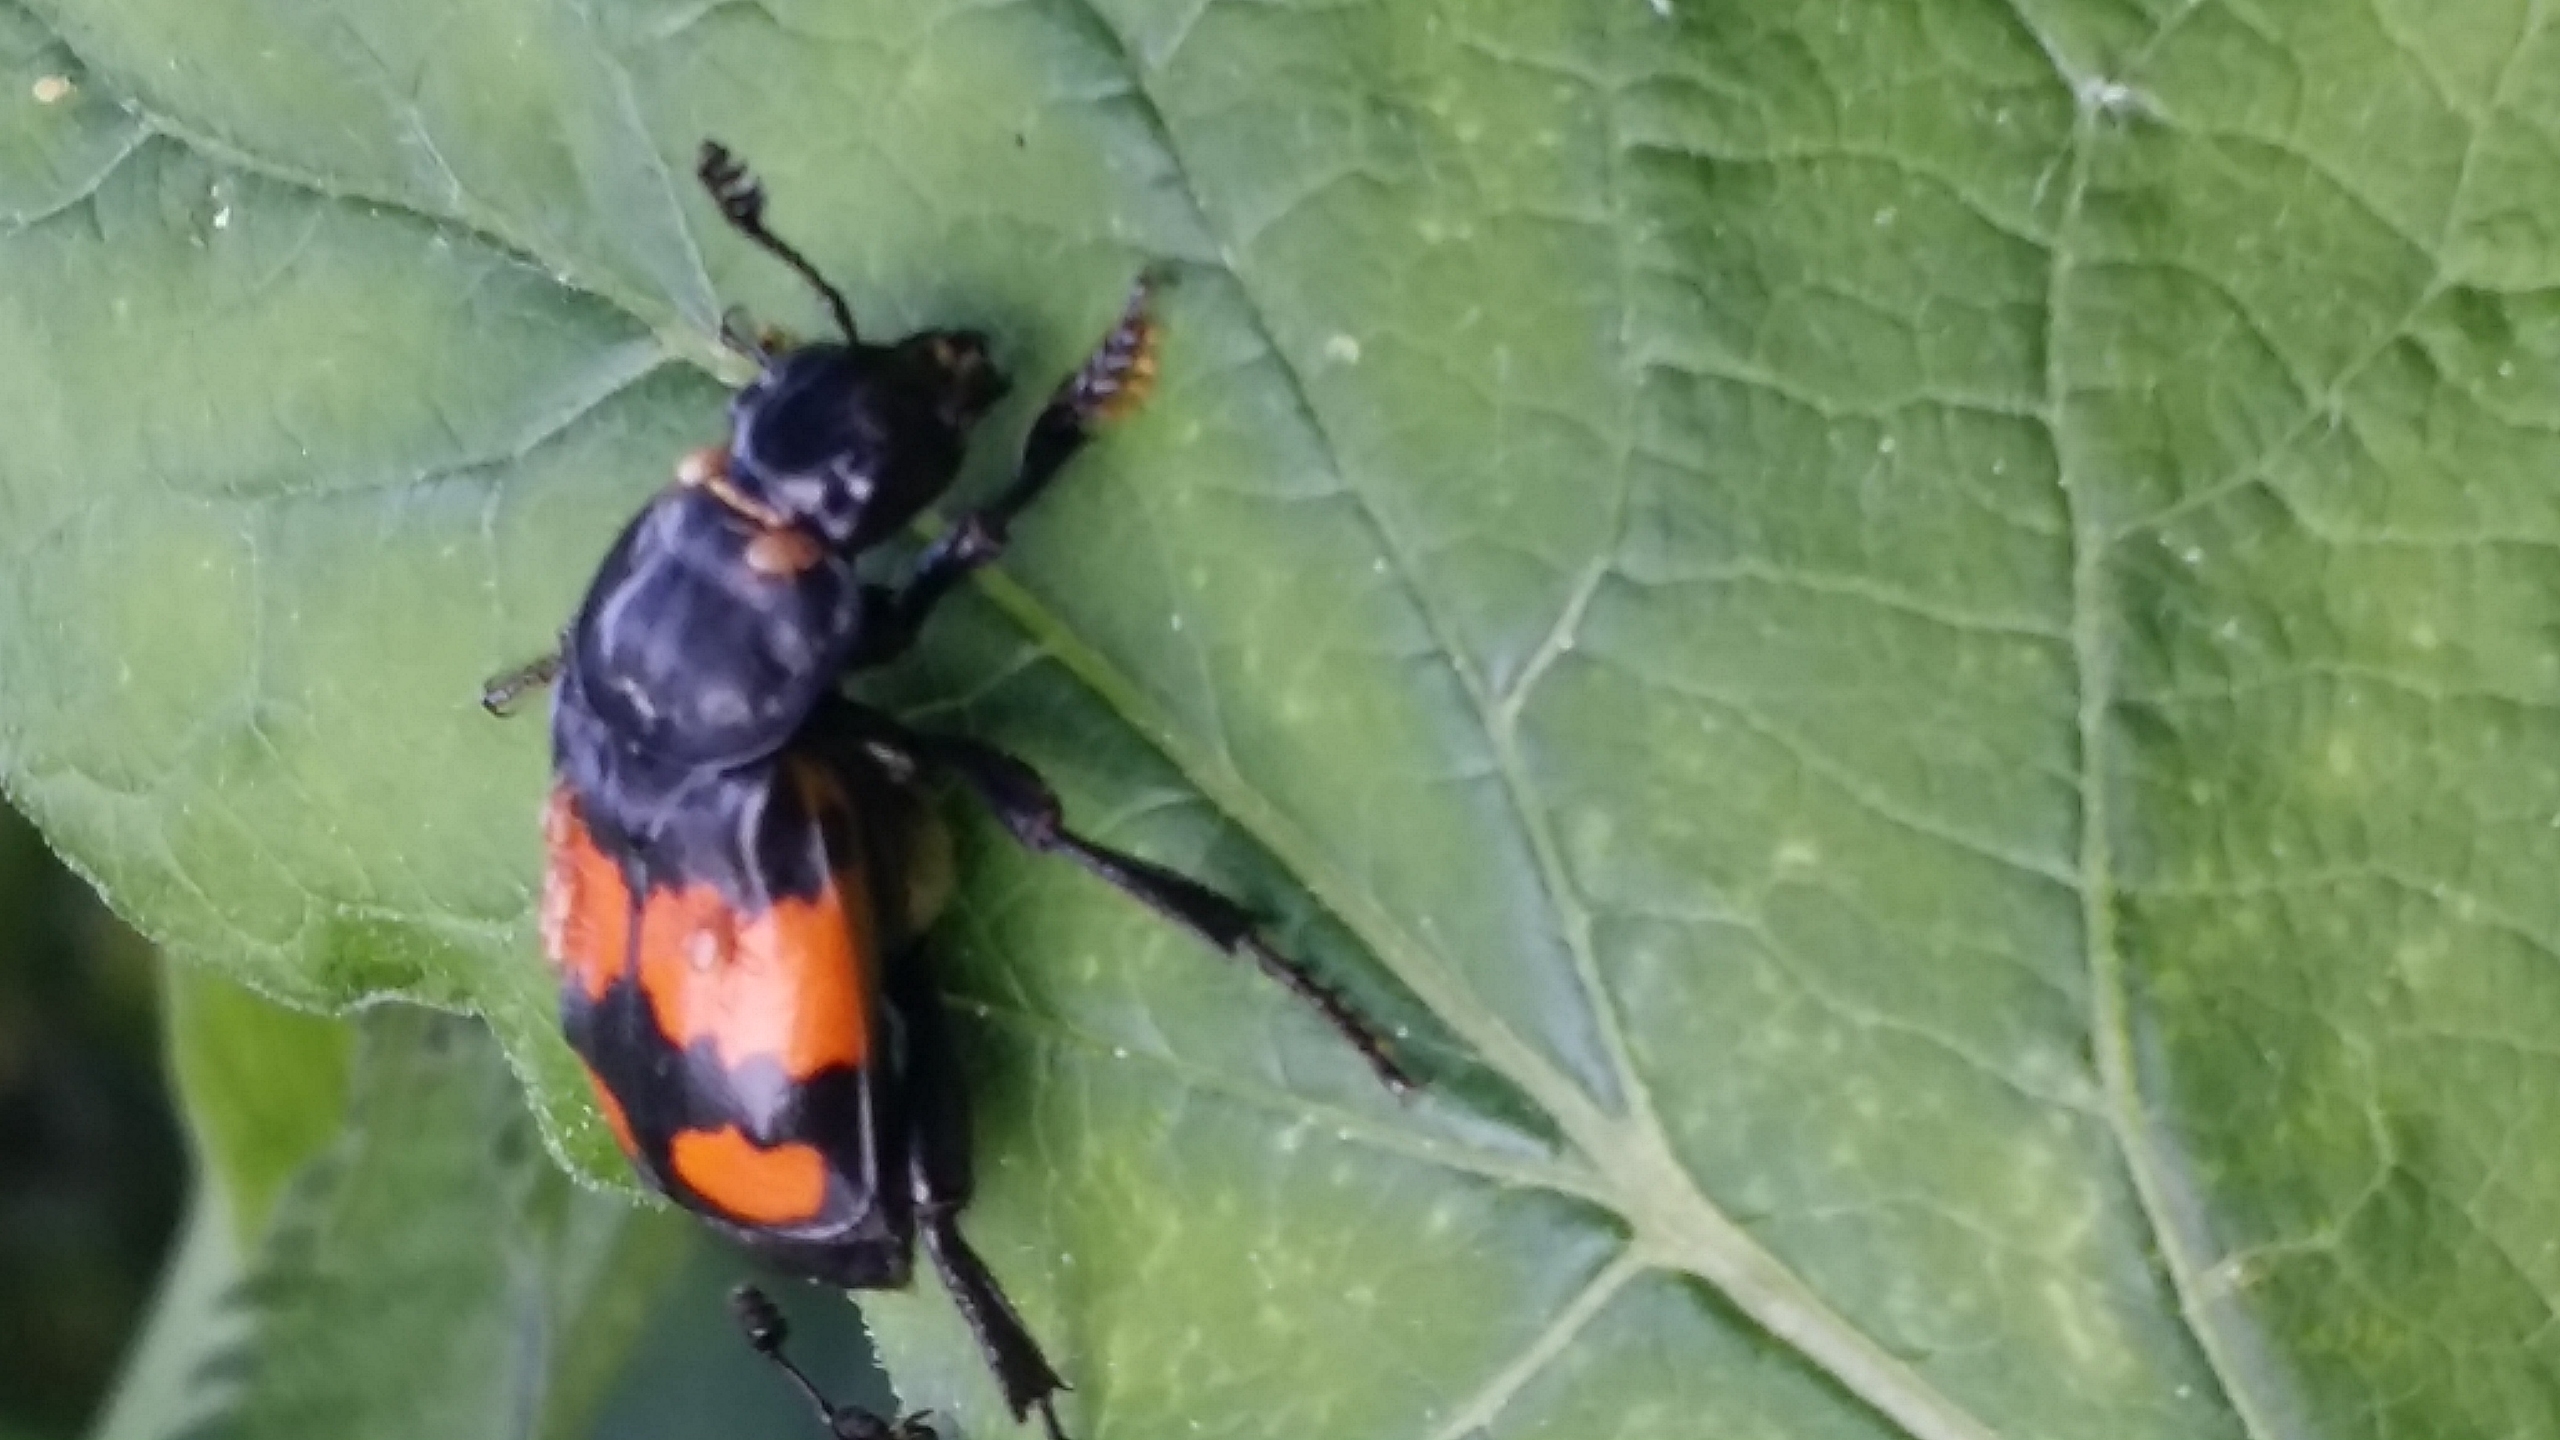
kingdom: Animalia
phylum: Arthropoda
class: Insecta
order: Coleoptera
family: Staphylinidae
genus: Nicrophorus
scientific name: Nicrophorus vespilloides
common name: Sortkøllet ådselgraver
